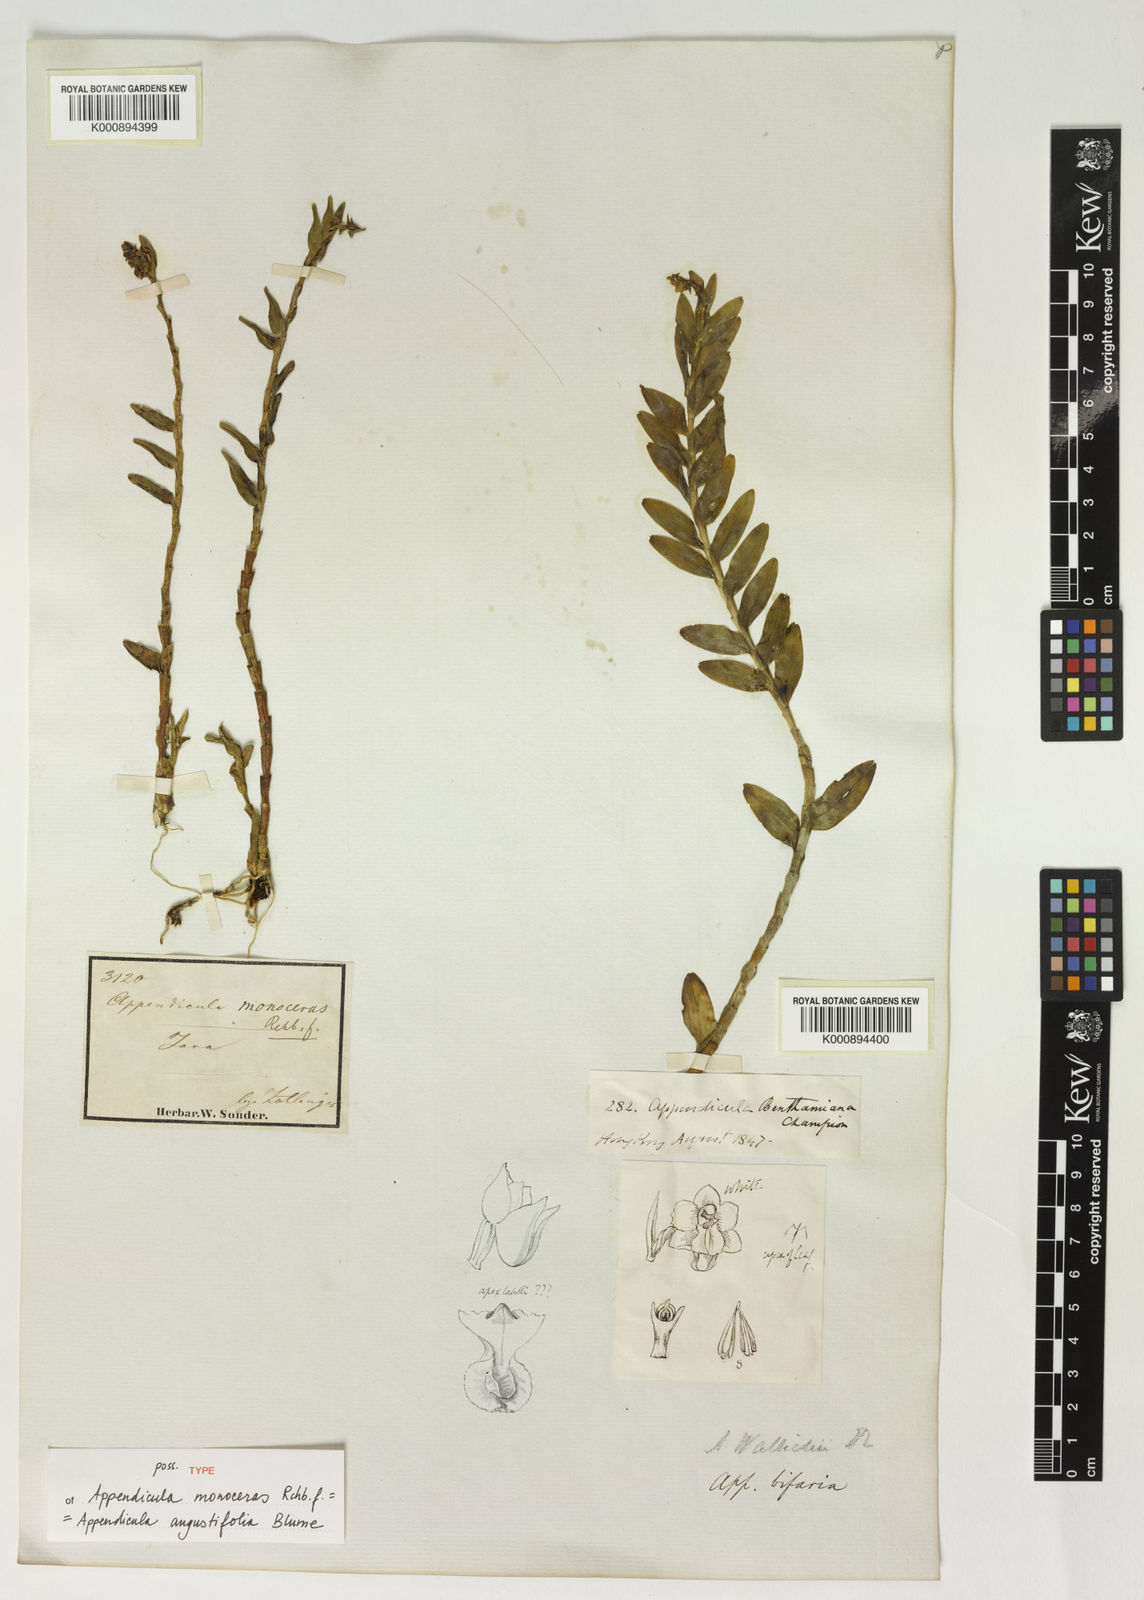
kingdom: Plantae
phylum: Tracheophyta
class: Liliopsida
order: Asparagales
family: Orchidaceae
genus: Appendicula
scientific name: Appendicula angustifolia
